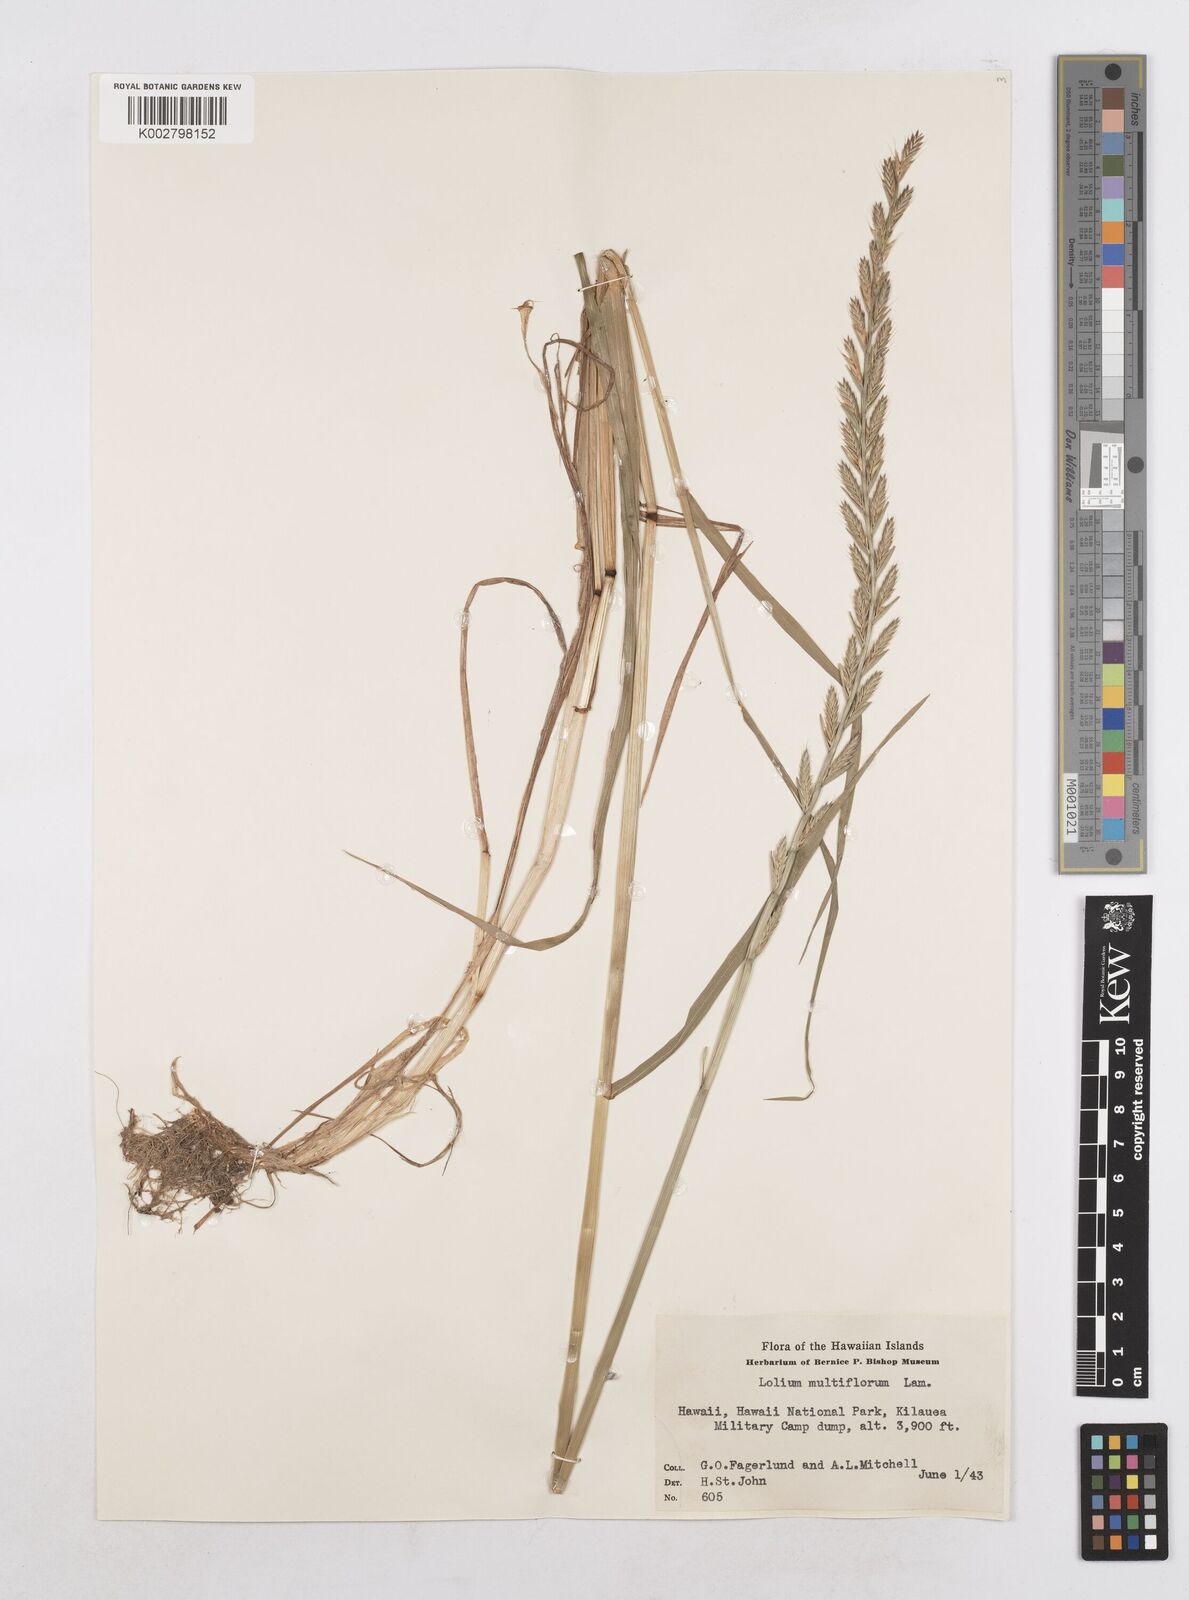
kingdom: Plantae
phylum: Tracheophyta
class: Liliopsida
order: Poales
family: Poaceae
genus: Lolium
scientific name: Lolium multiflorum
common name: Annual ryegrass
